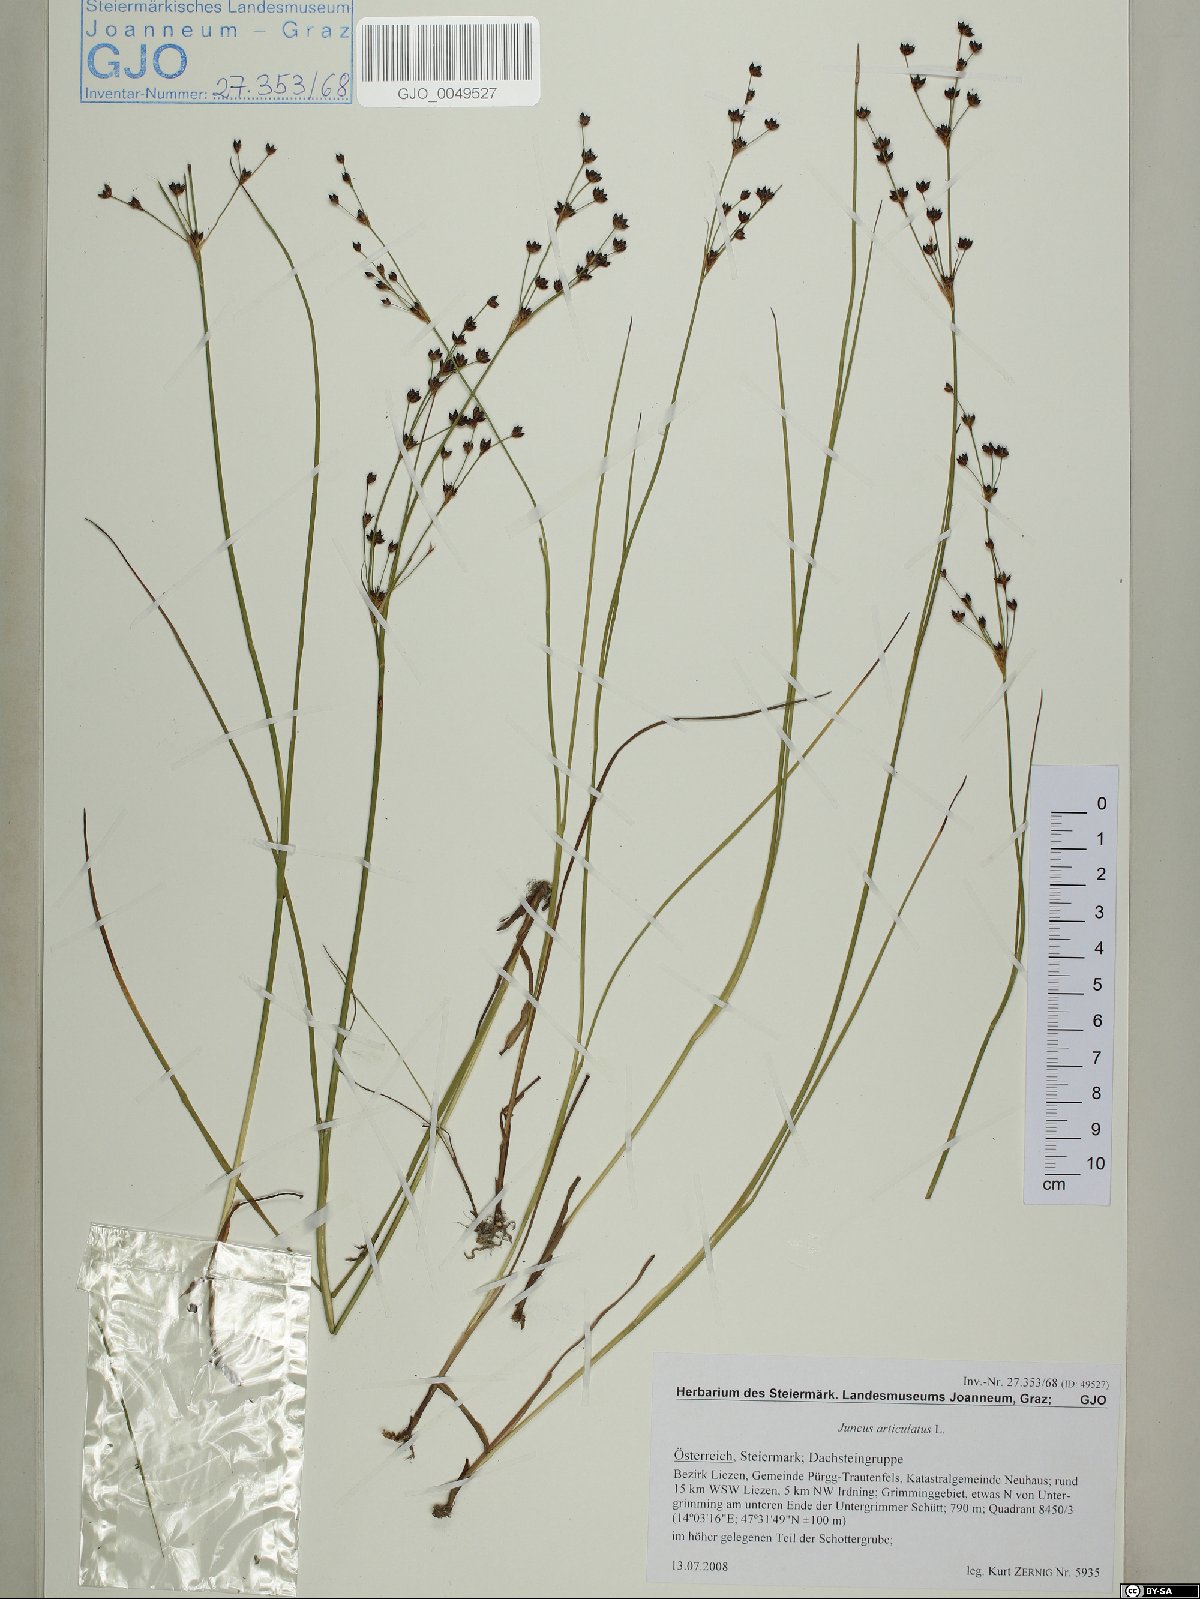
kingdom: Plantae
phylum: Tracheophyta
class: Liliopsida
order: Poales
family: Juncaceae
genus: Juncus
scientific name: Juncus articulatus
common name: Jointed rush
